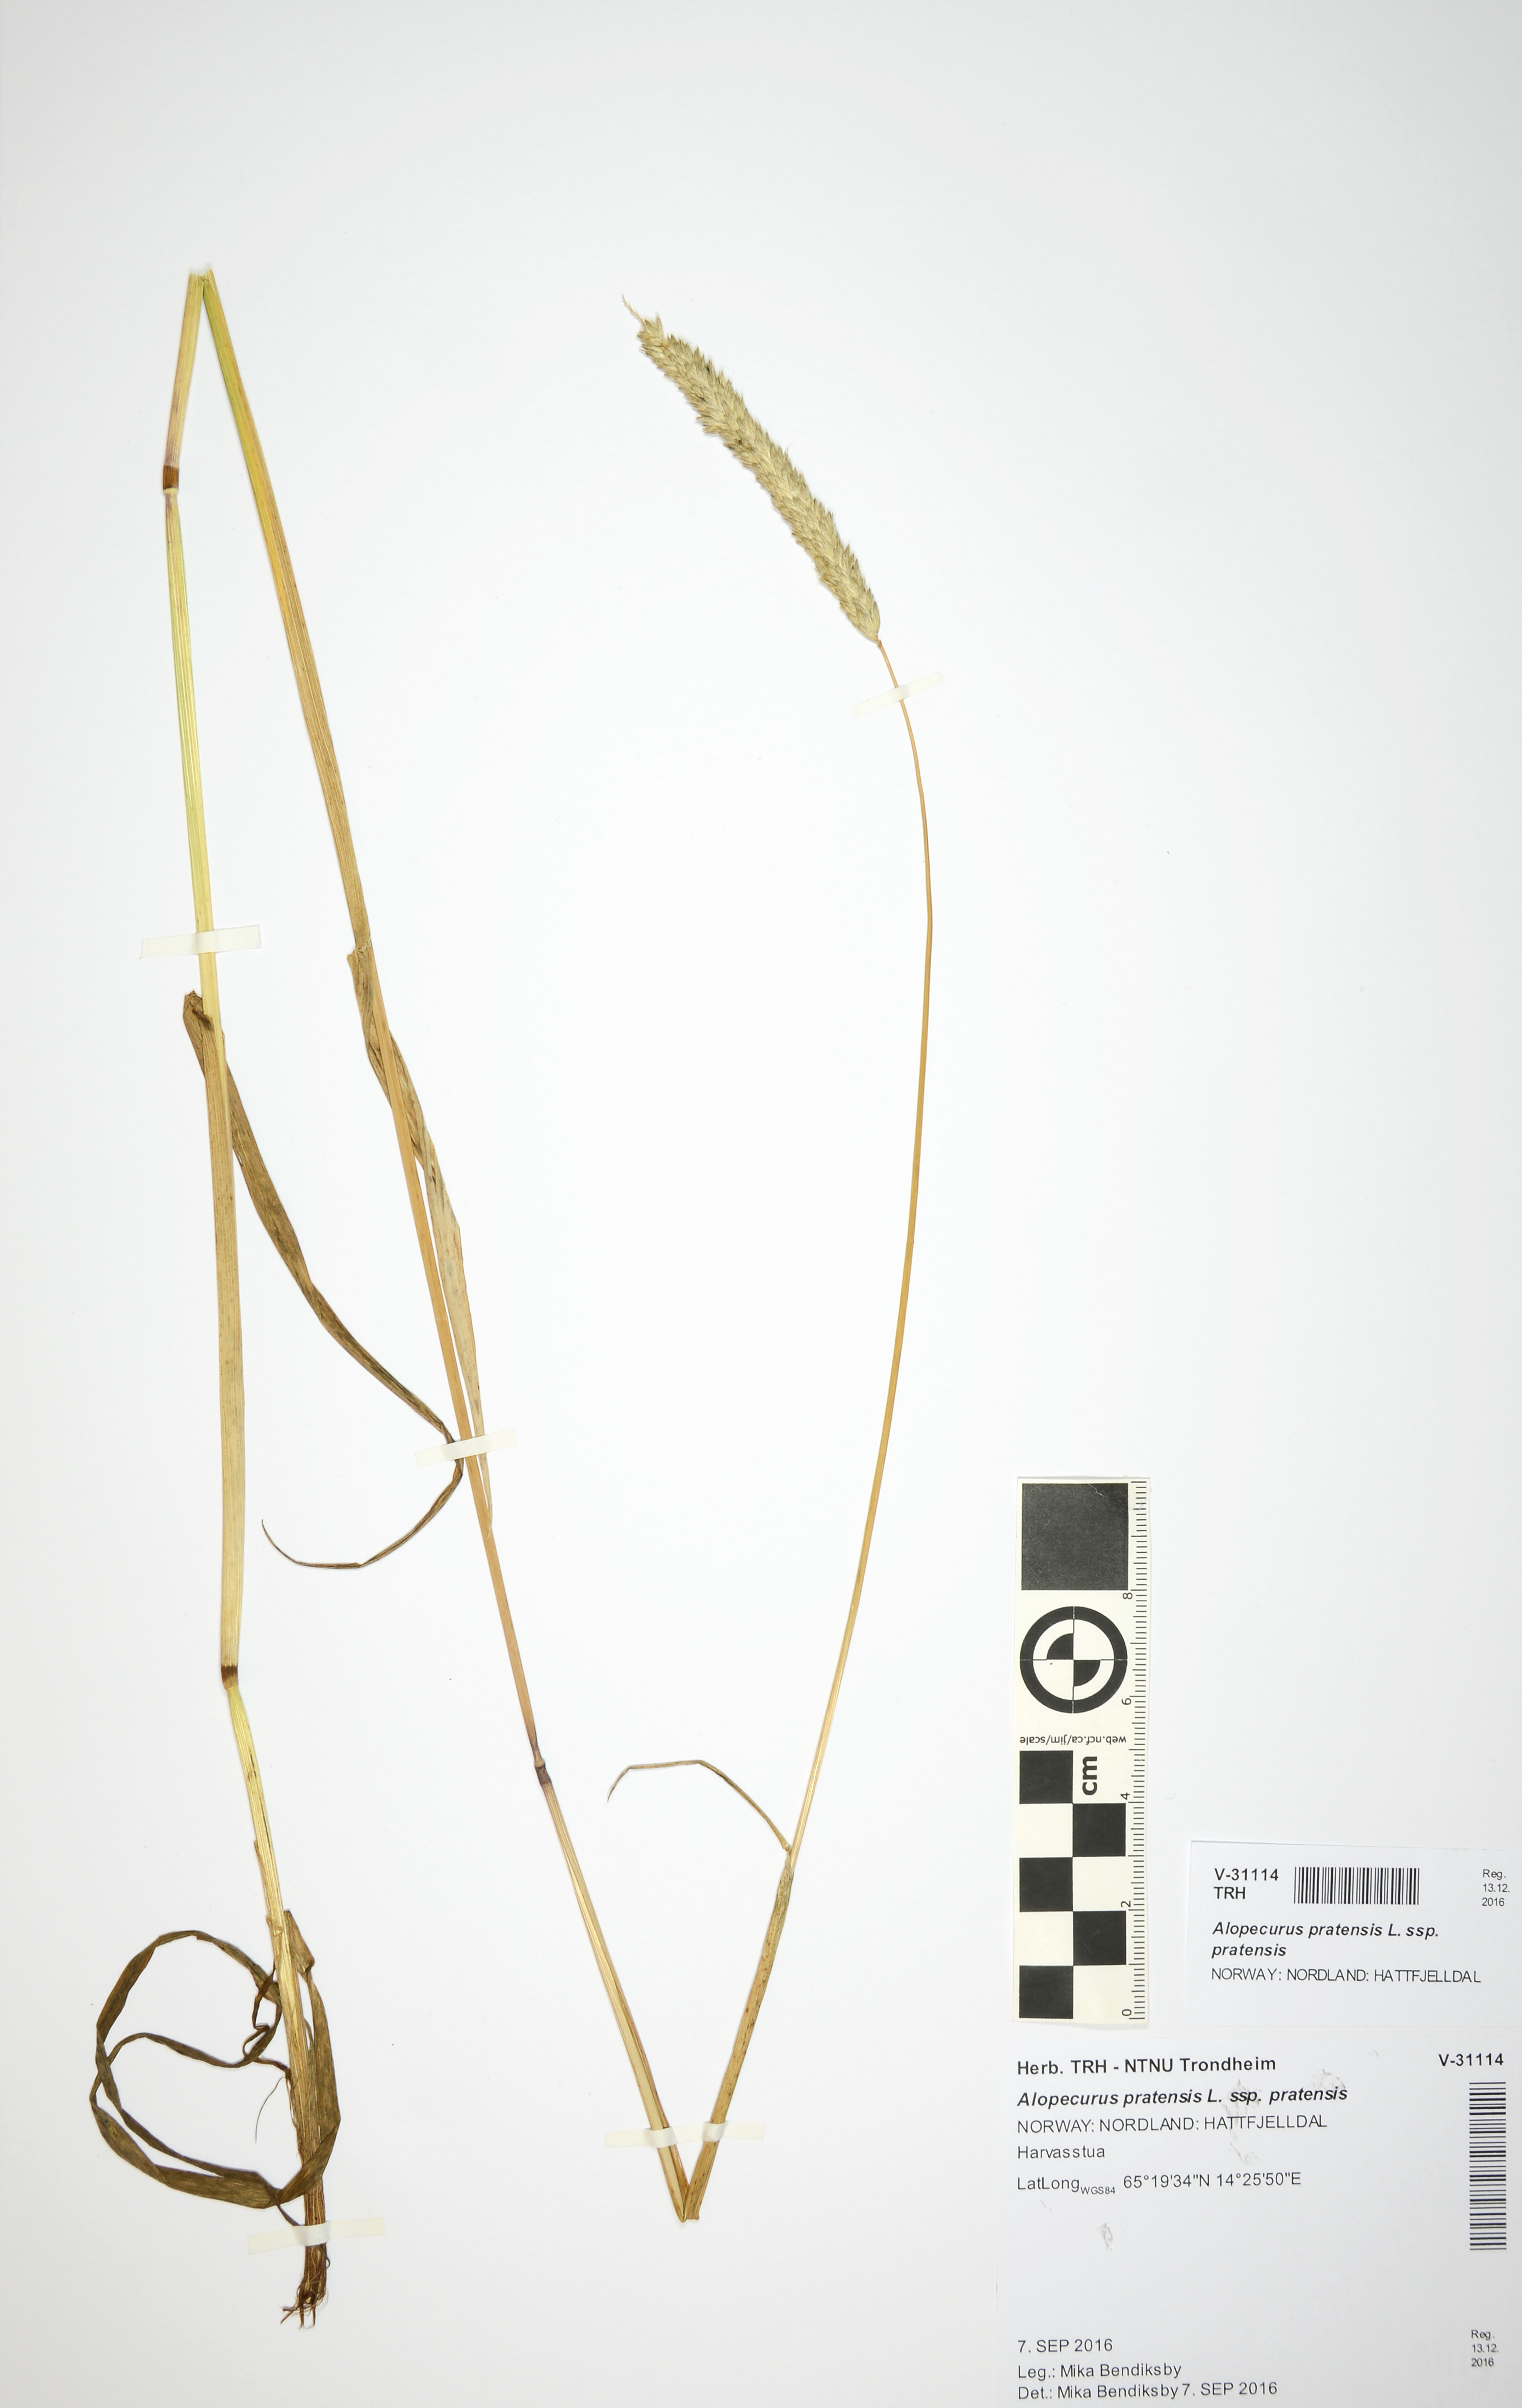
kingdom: Plantae
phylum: Tracheophyta
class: Liliopsida
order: Poales
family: Poaceae
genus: Alopecurus
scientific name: Alopecurus pratensis
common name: Meadow foxtail
